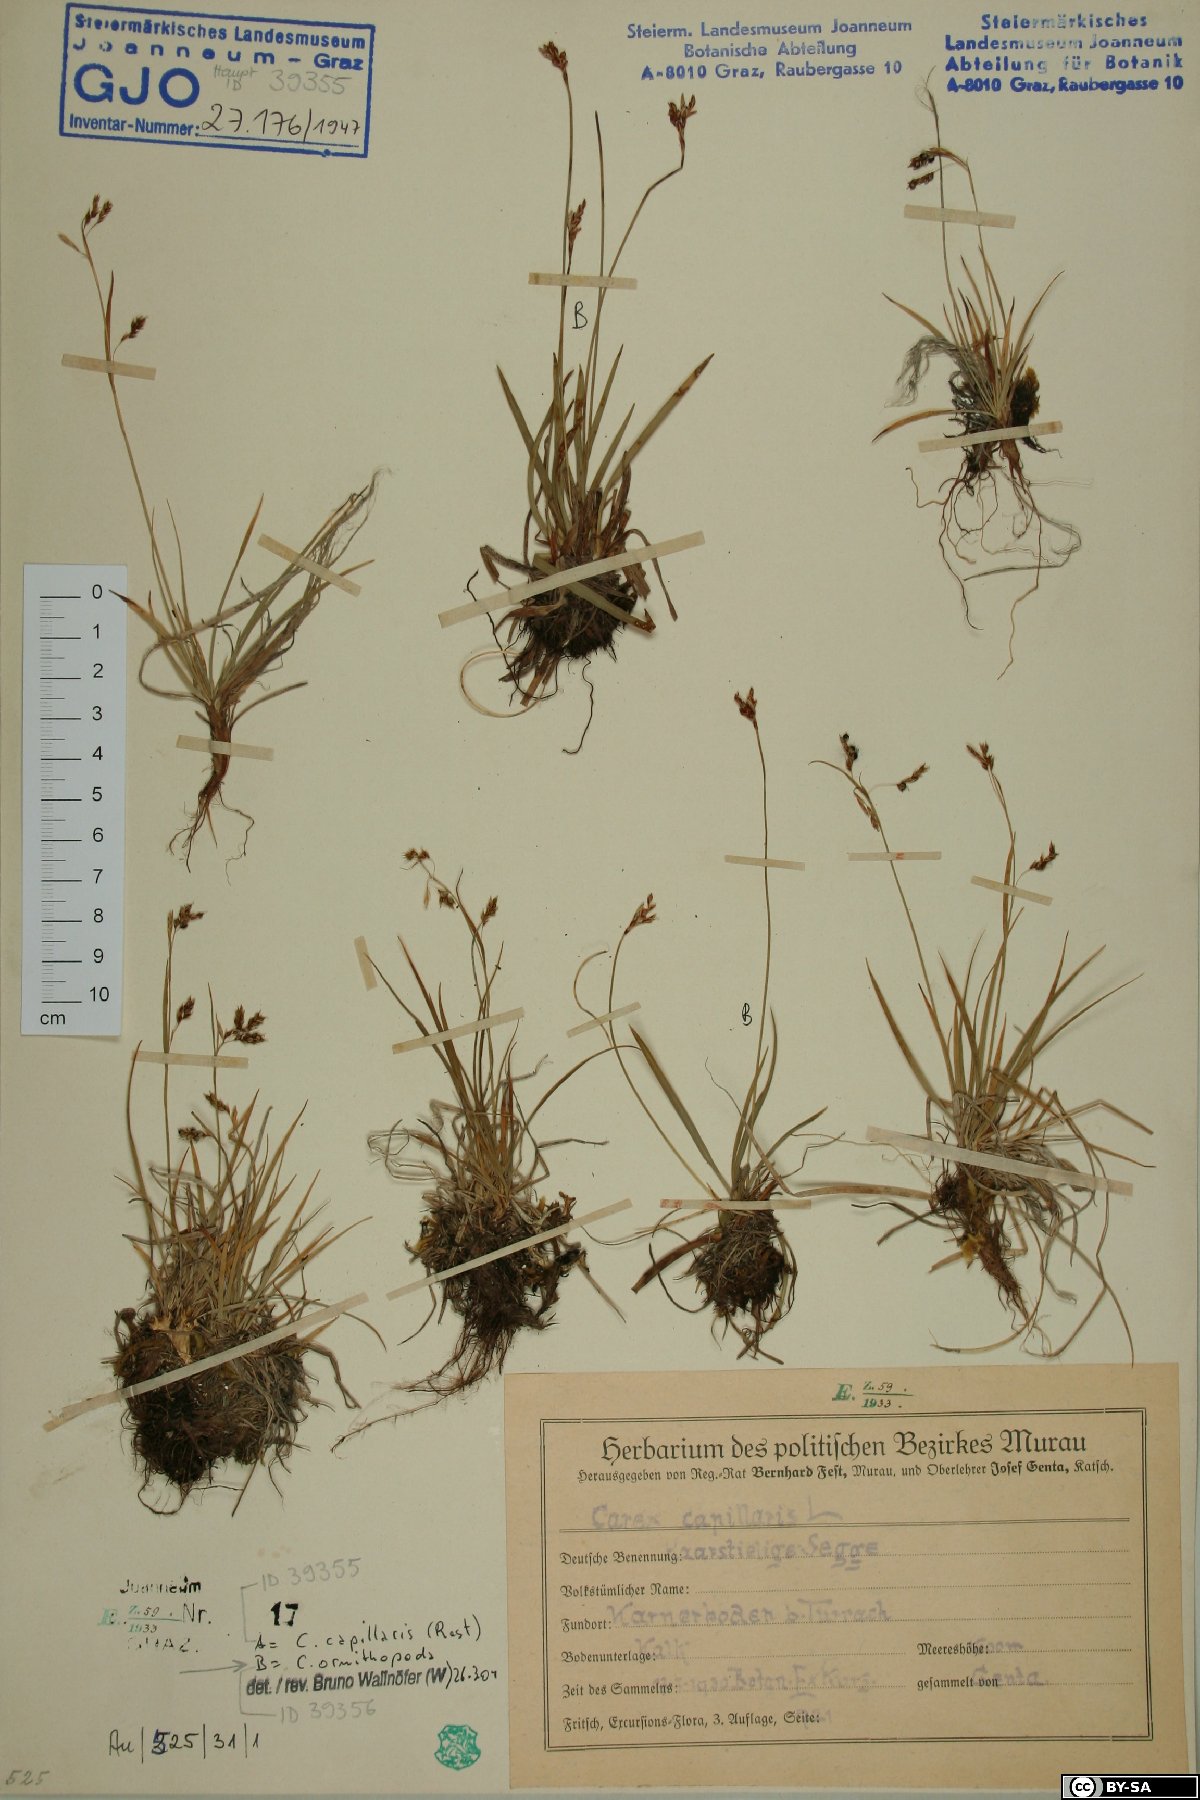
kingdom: Plantae
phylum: Tracheophyta
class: Liliopsida
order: Poales
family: Cyperaceae
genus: Carex
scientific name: Carex capillaris
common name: Hair sedge
